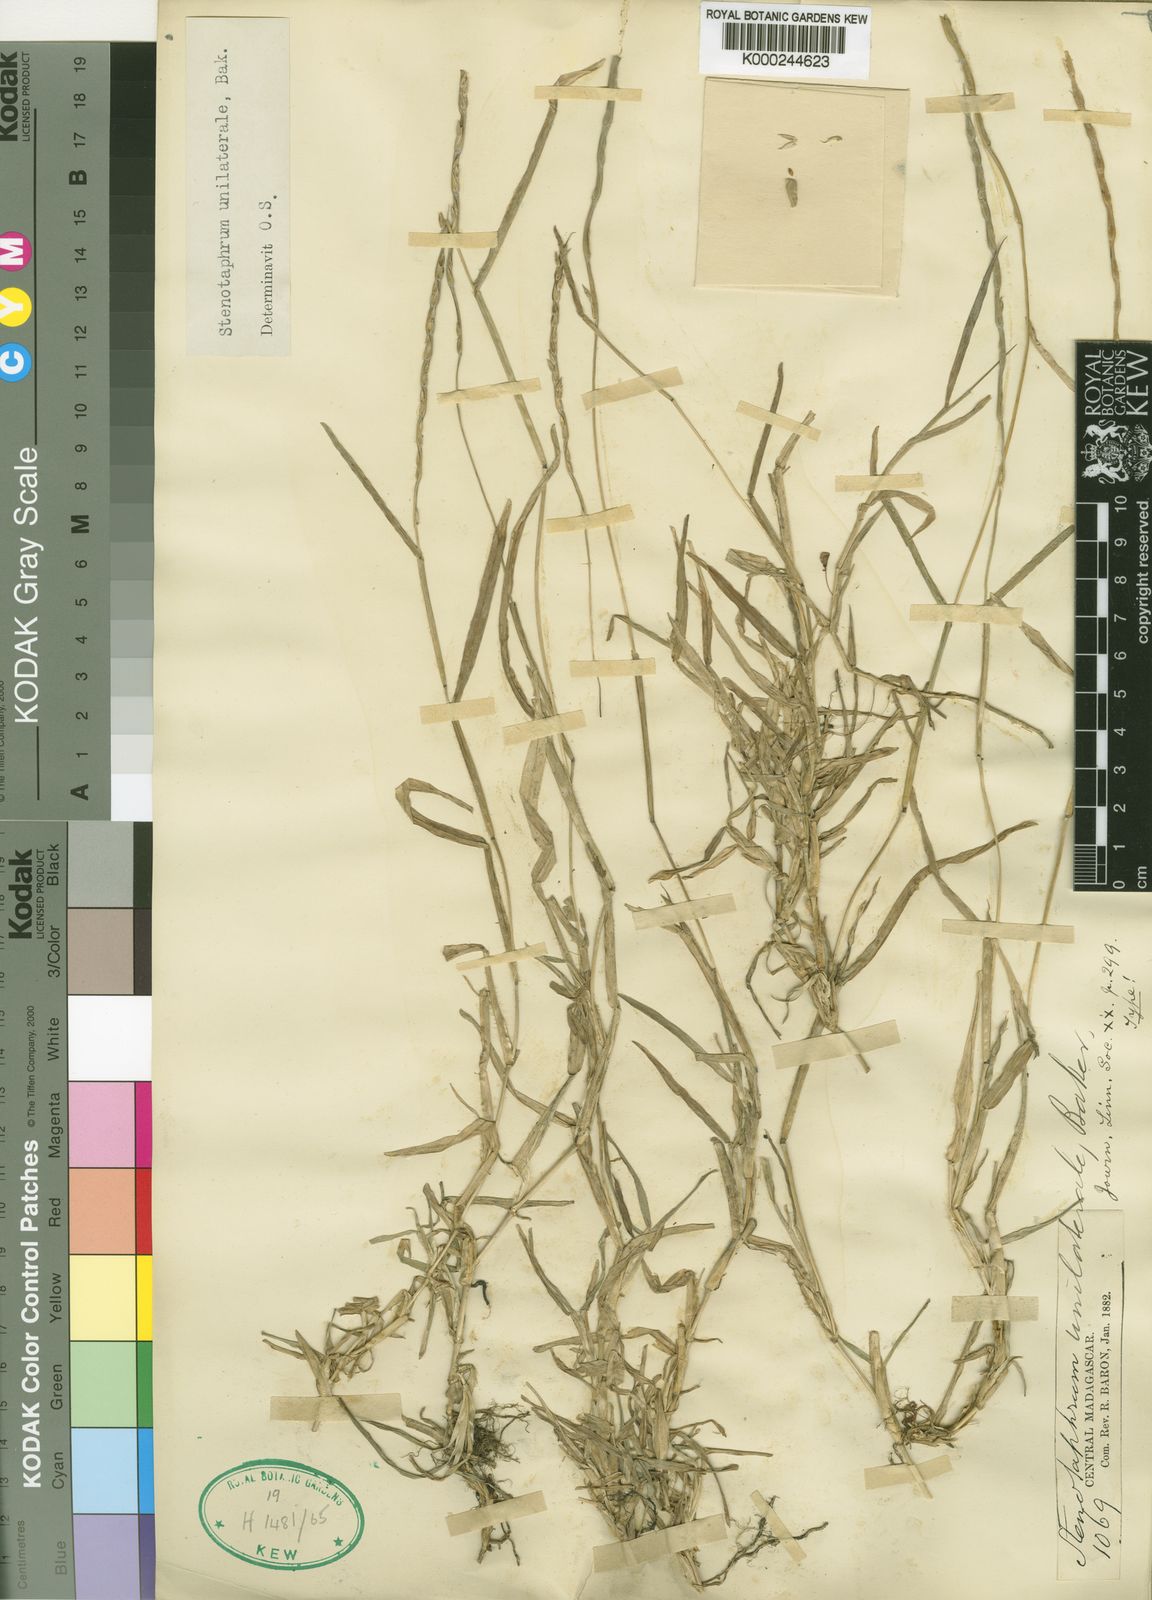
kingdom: Plantae
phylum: Tracheophyta
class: Liliopsida
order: Poales
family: Poaceae
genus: Stenotaphrum
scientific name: Stenotaphrum unilaterale
